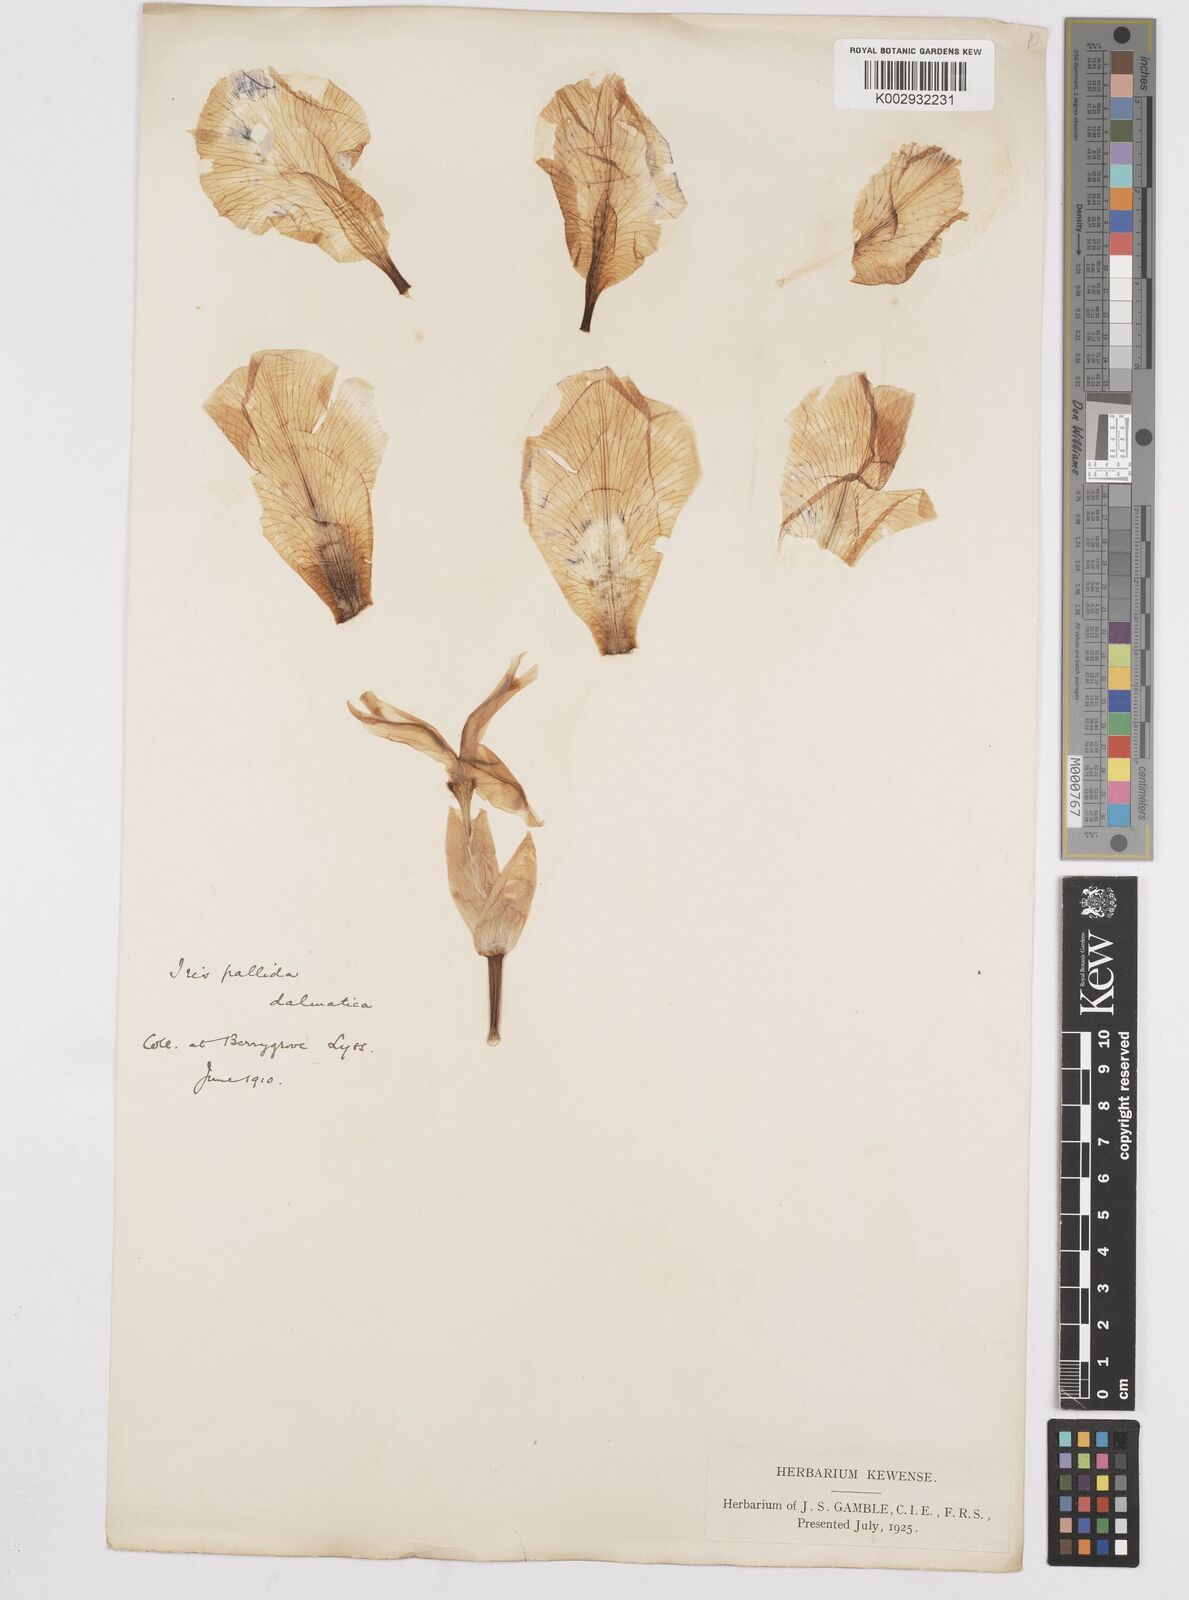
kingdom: Plantae
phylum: Tracheophyta
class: Liliopsida
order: Asparagales
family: Iridaceae
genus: Iris
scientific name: Iris pallida
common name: Sweet iris
